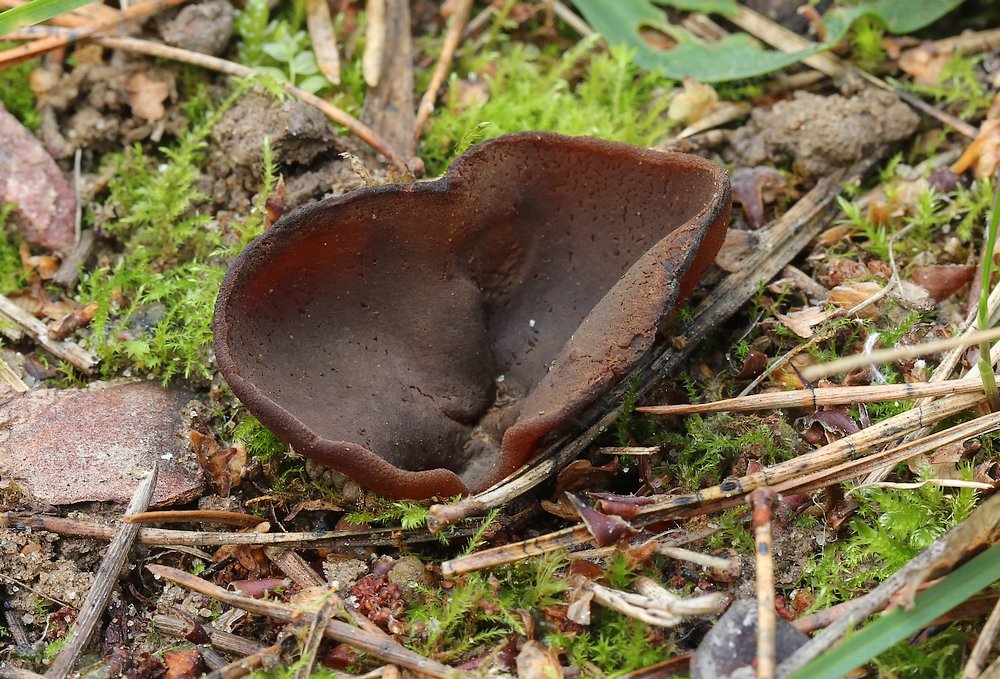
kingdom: Fungi
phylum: Ascomycota
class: Pezizomycetes
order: Pezizales
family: Pezizaceae
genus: Legaliana
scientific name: Legaliana badia
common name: leverbrun bægersvamp
